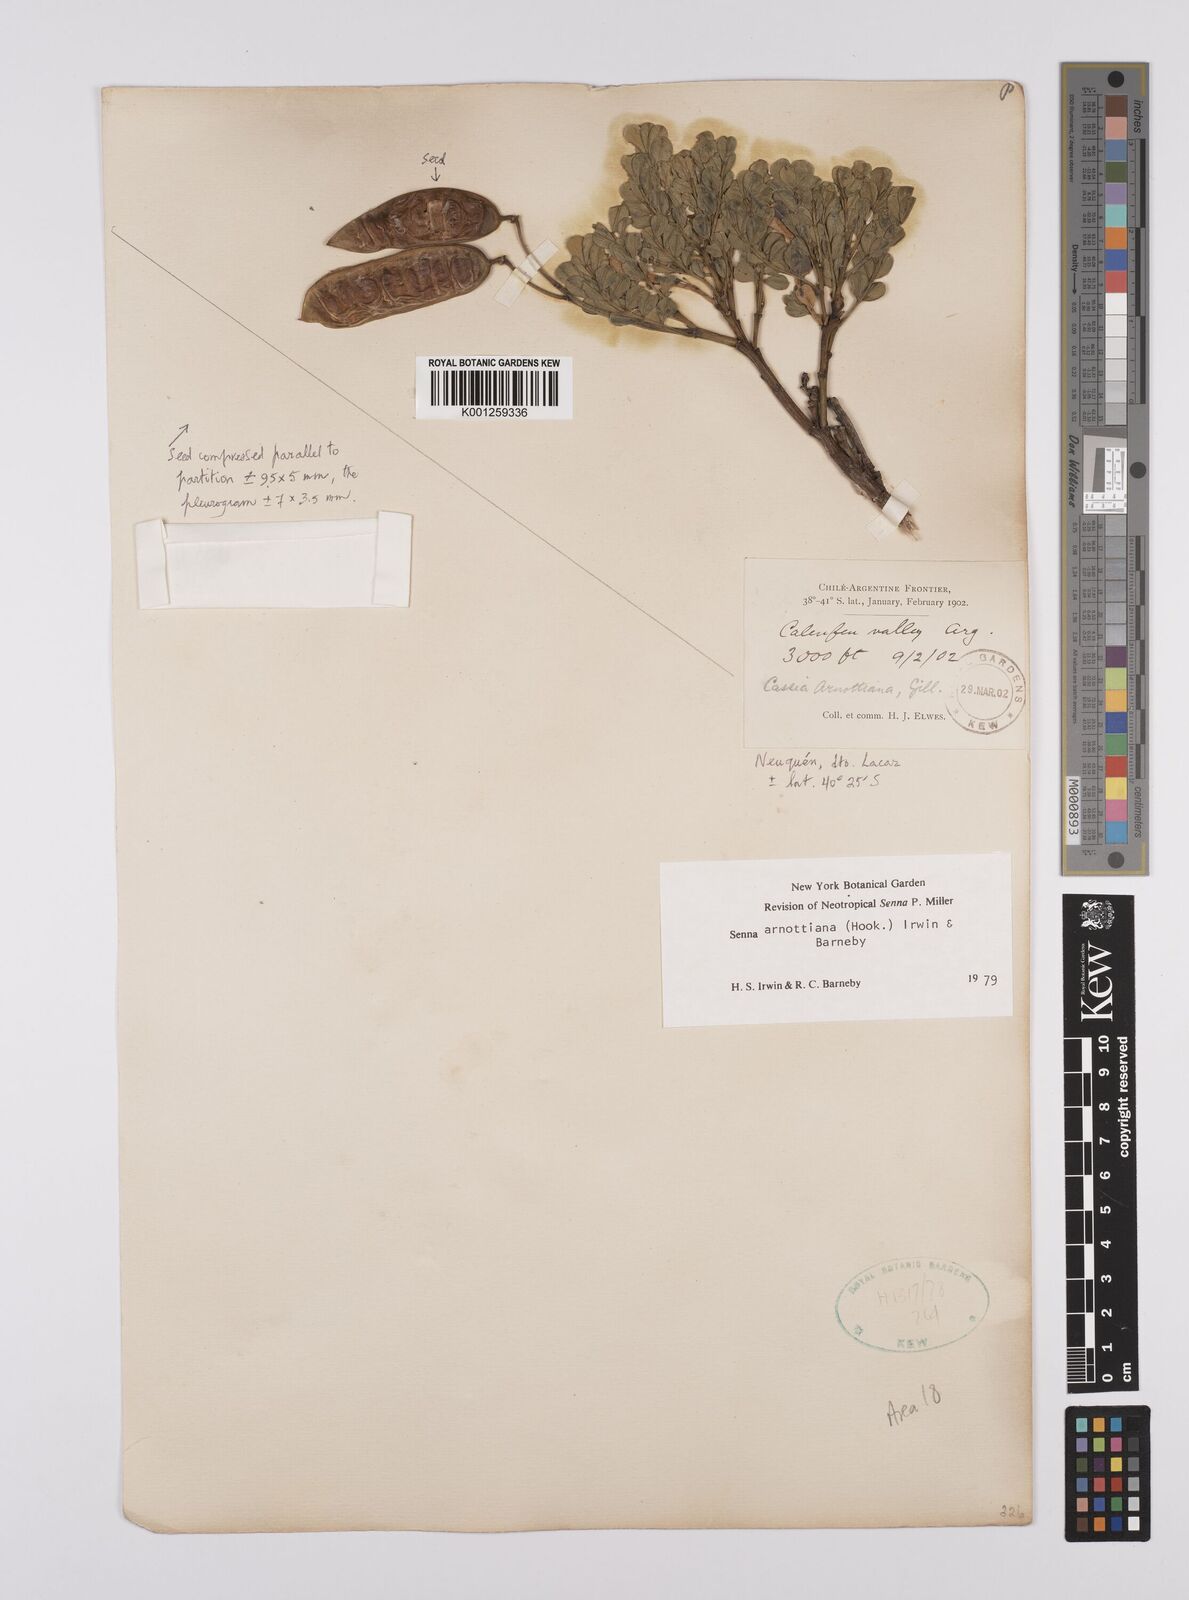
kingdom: Plantae
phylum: Tracheophyta
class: Magnoliopsida
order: Fabales
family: Fabaceae
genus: Senna
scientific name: Senna arnottiana
